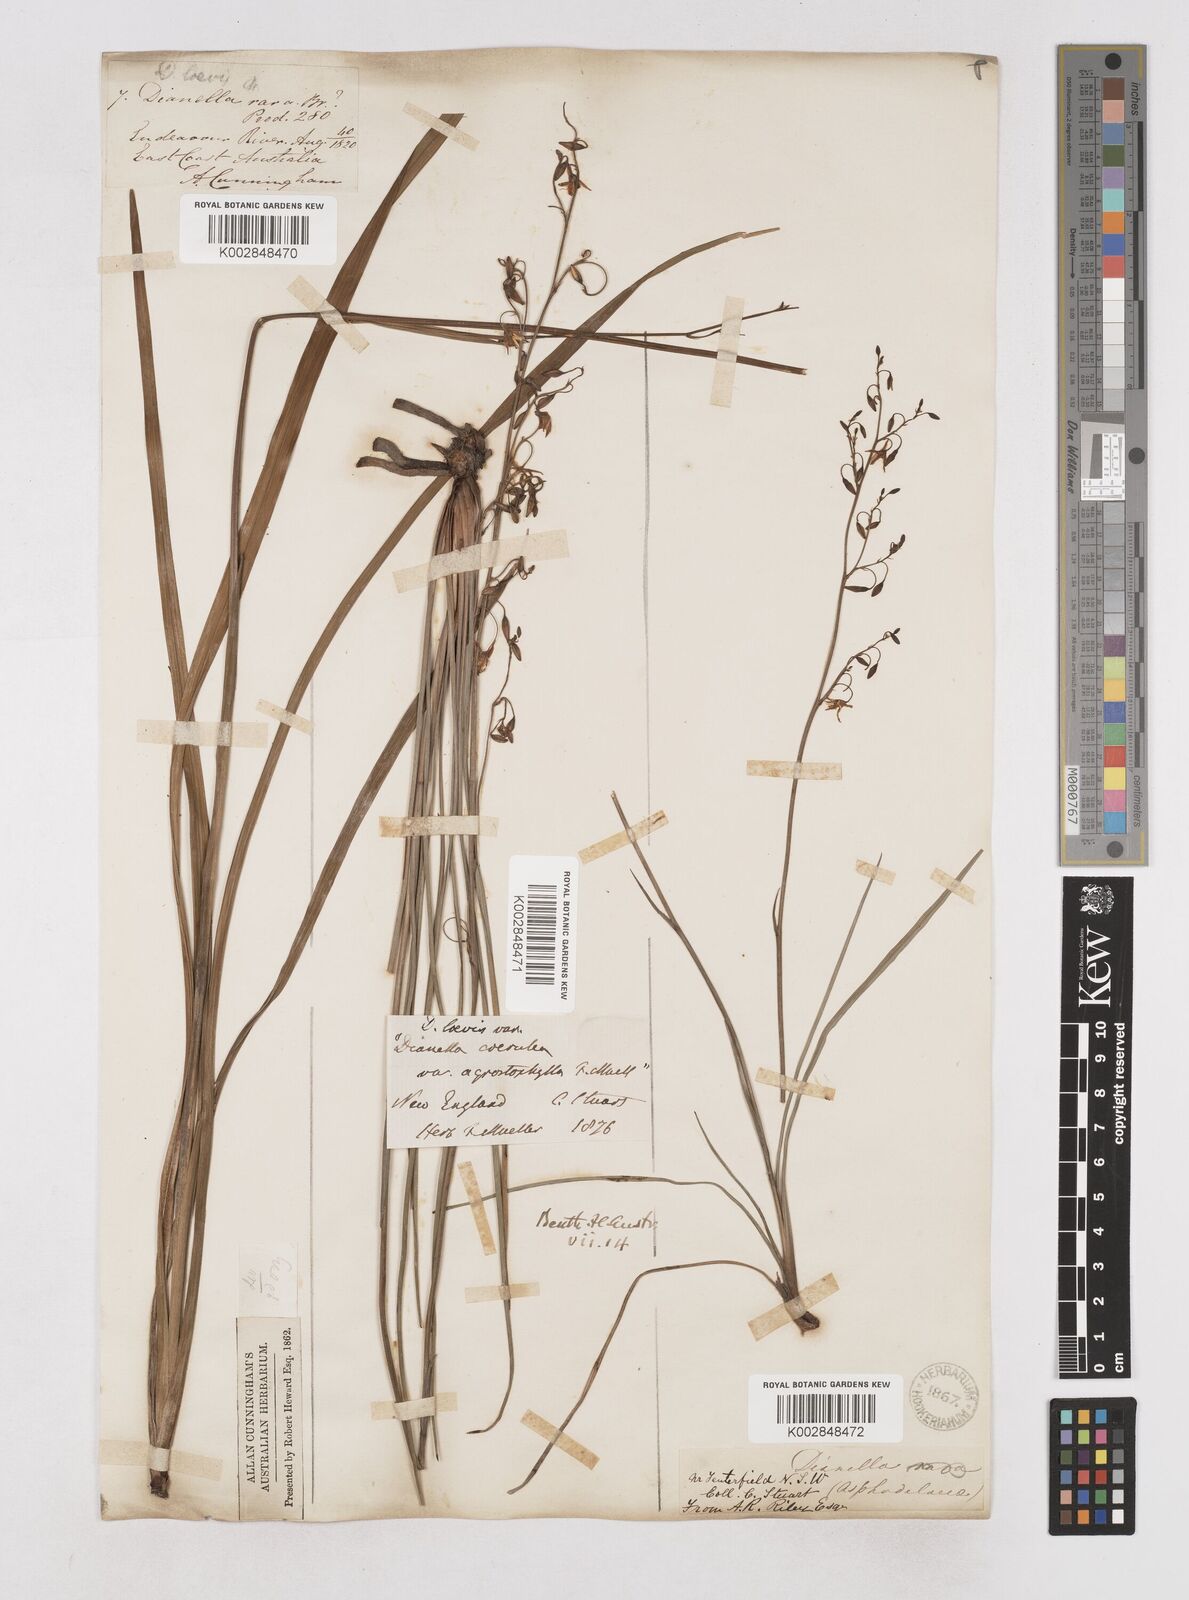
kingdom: Plantae
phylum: Tracheophyta
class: Liliopsida
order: Asparagales
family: Asphodelaceae
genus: Dianella
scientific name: Dianella longifolia
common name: Blue flax-lily
